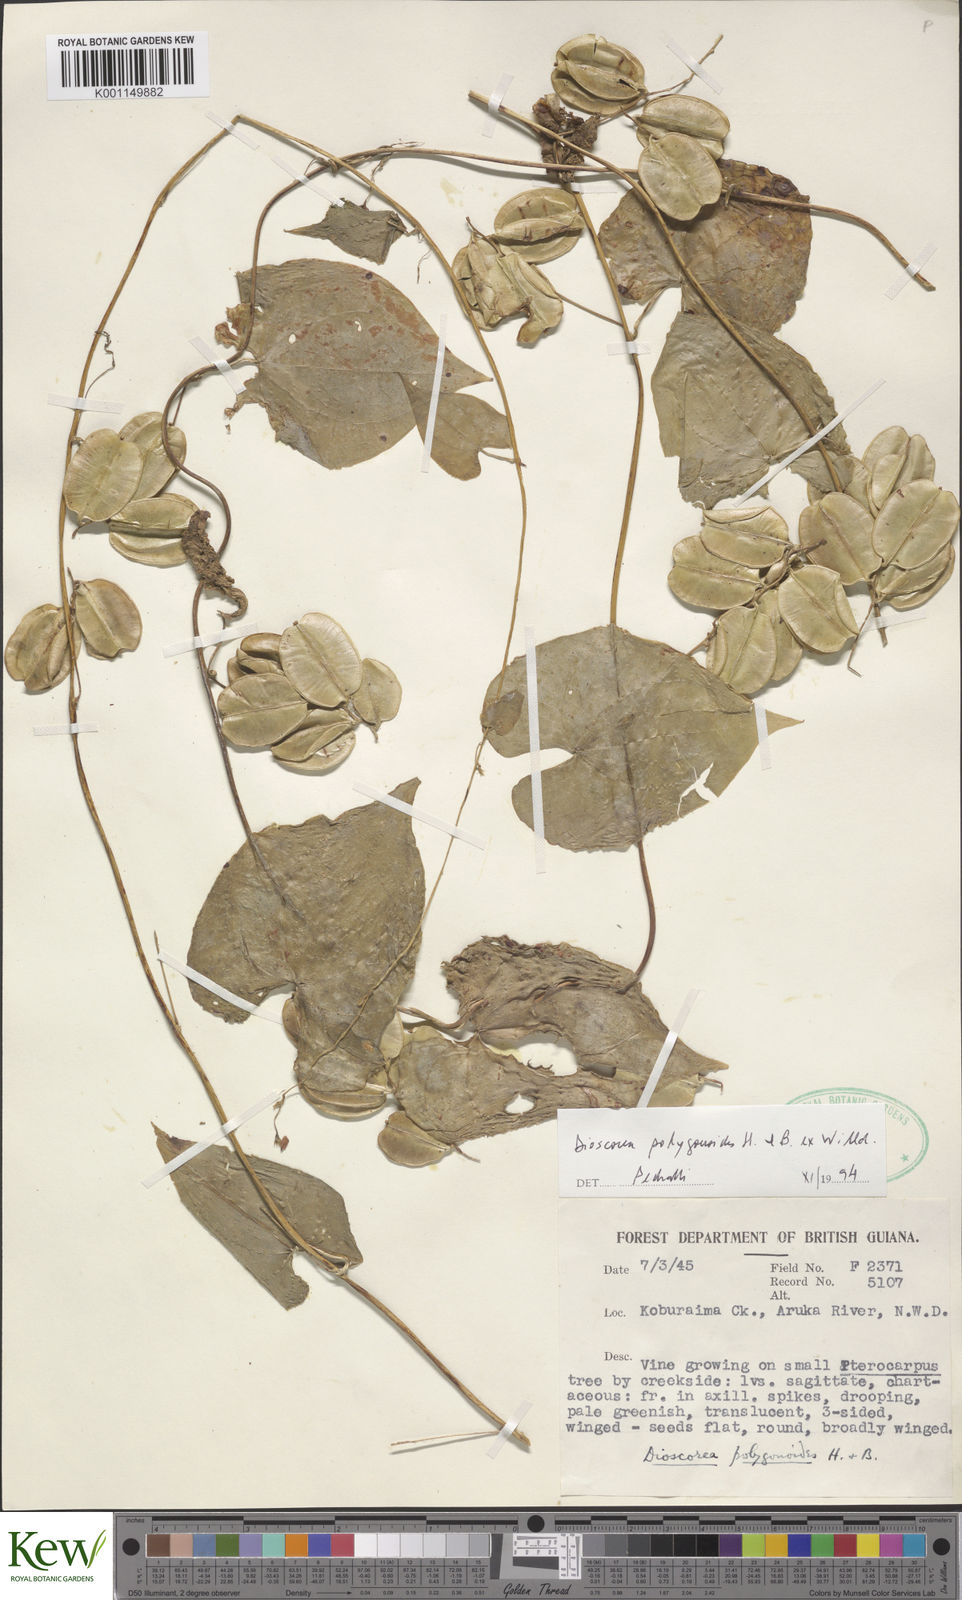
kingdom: Plantae
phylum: Tracheophyta
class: Liliopsida
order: Dioscoreales
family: Dioscoreaceae
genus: Dioscorea
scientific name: Dioscorea polygonoides
